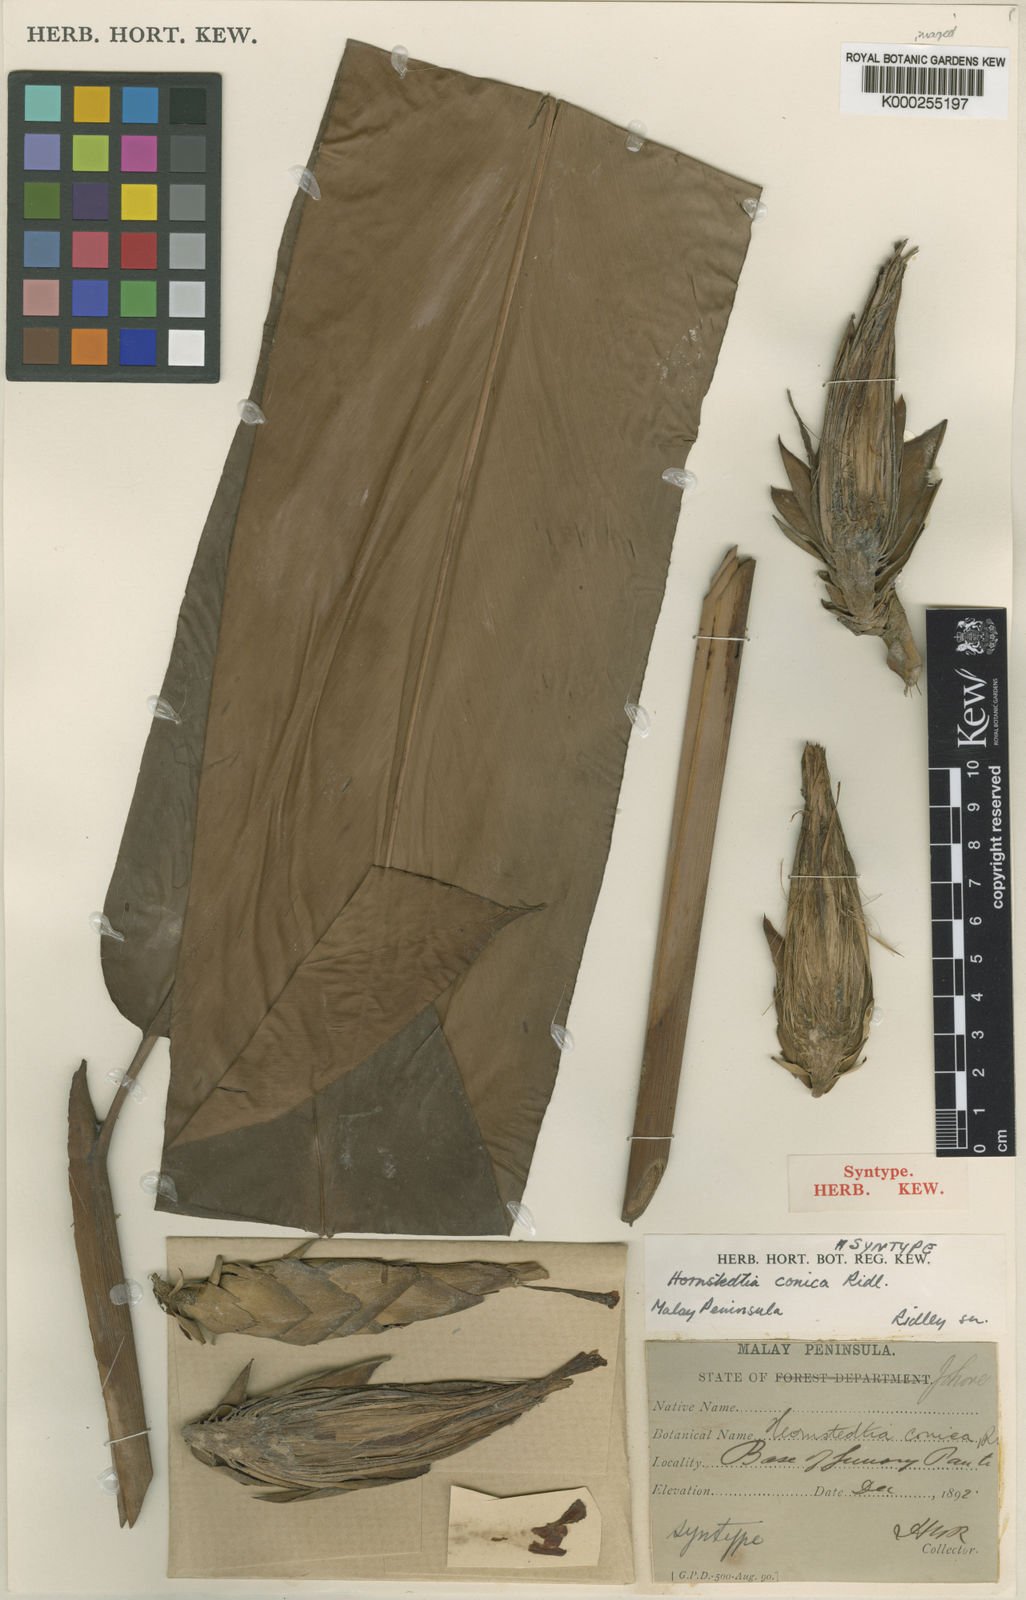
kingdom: Plantae
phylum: Tracheophyta
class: Liliopsida
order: Zingiberales
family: Zingiberaceae
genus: Hornstedtia
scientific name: Hornstedtia conica
